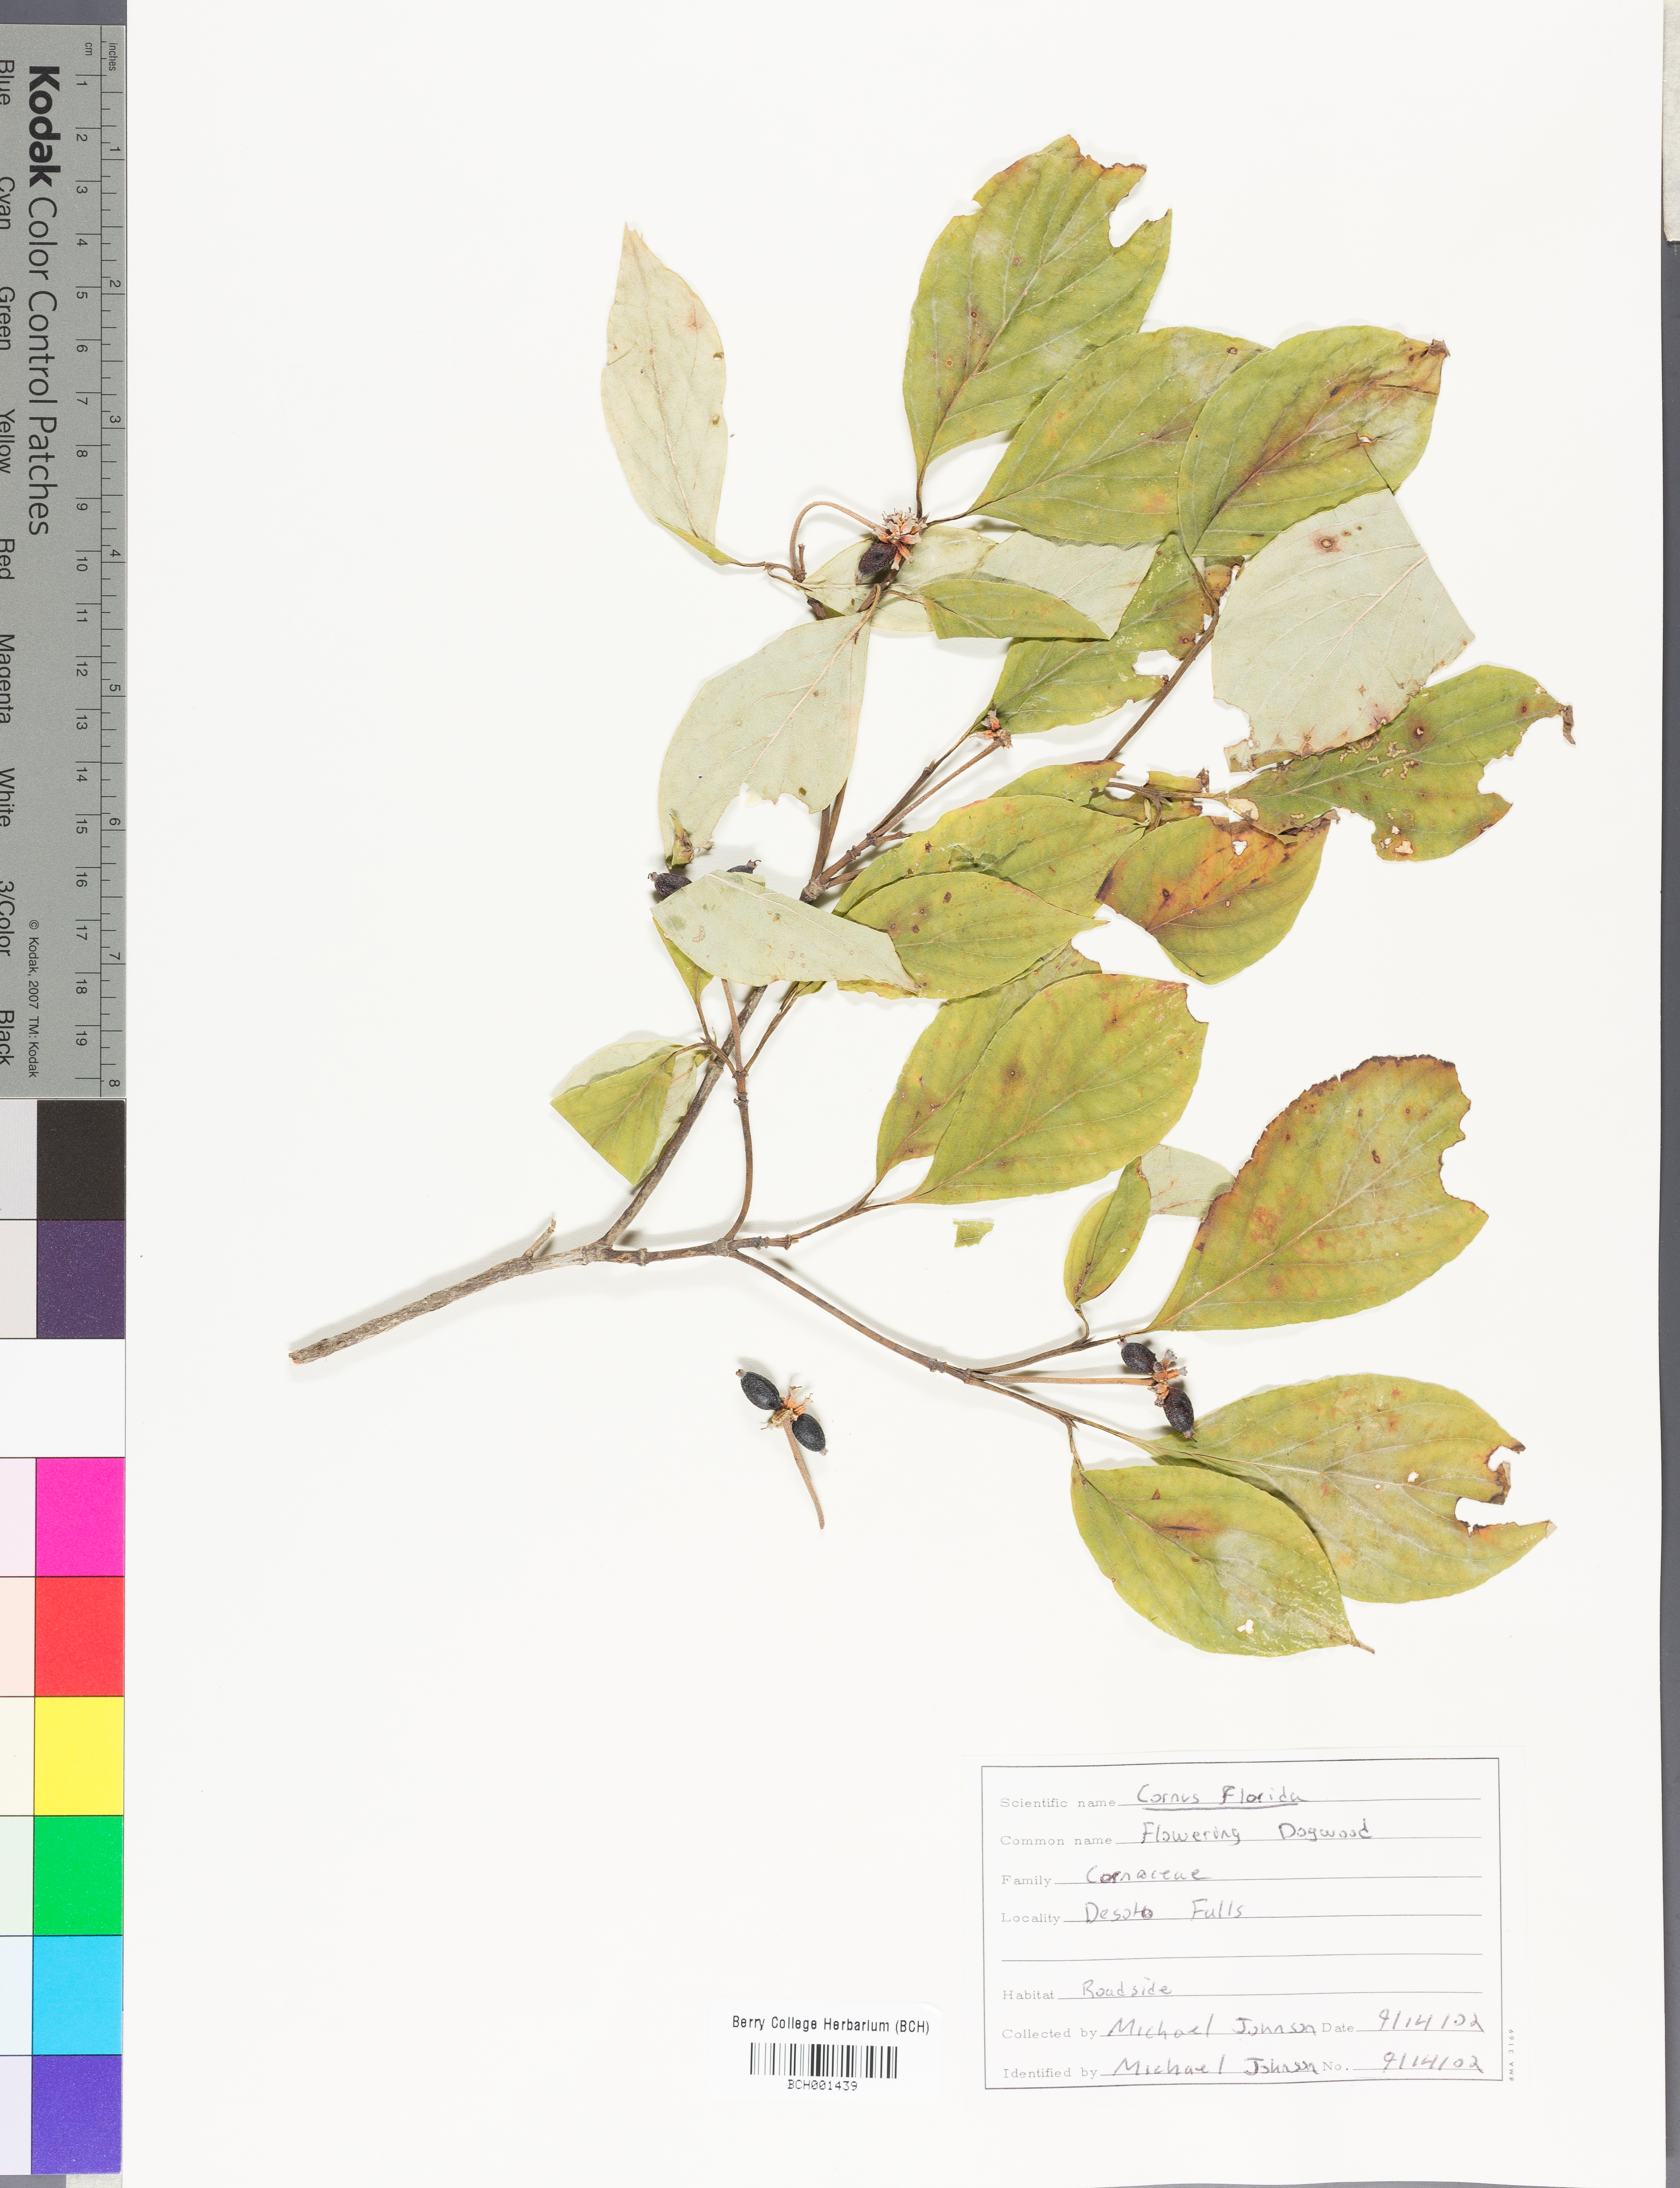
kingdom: Plantae
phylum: Tracheophyta
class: Magnoliopsida
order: Cornales
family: Cornaceae
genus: Cornus
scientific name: Cornus florida
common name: Flowering dogwood
